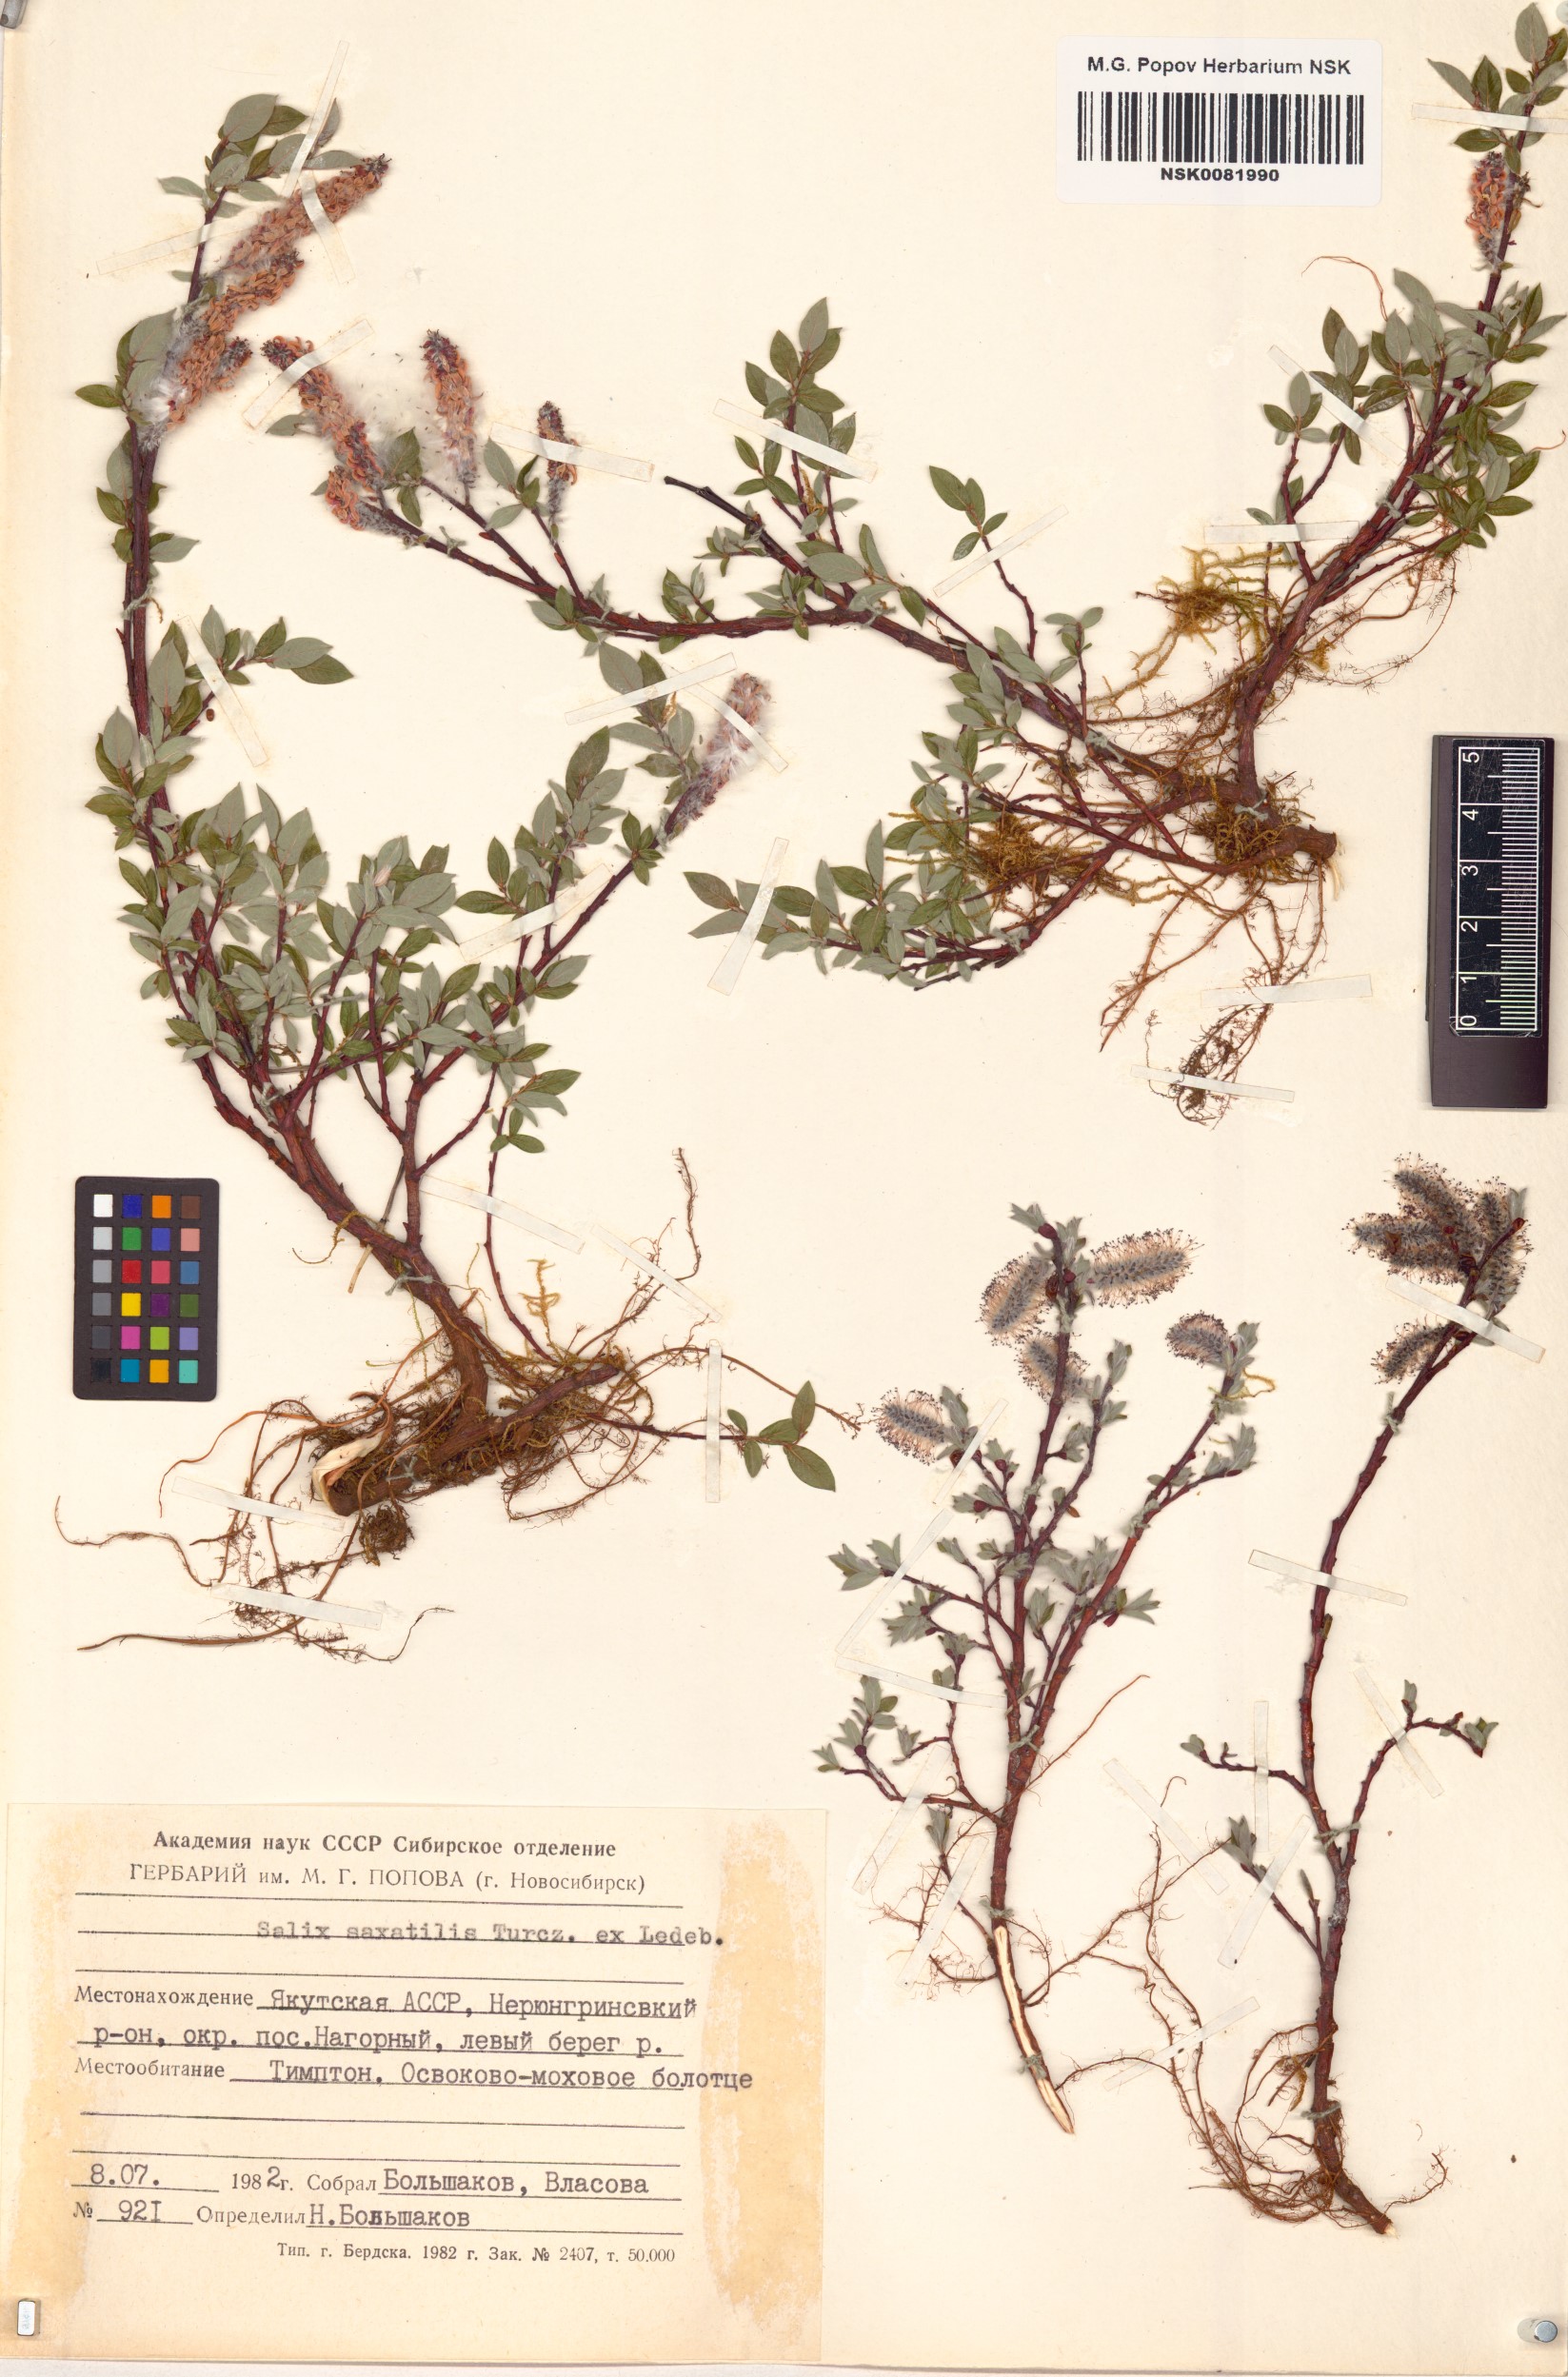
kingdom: Plantae
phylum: Tracheophyta
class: Magnoliopsida
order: Malpighiales
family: Salicaceae
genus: Salix
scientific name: Salix saxatilis
